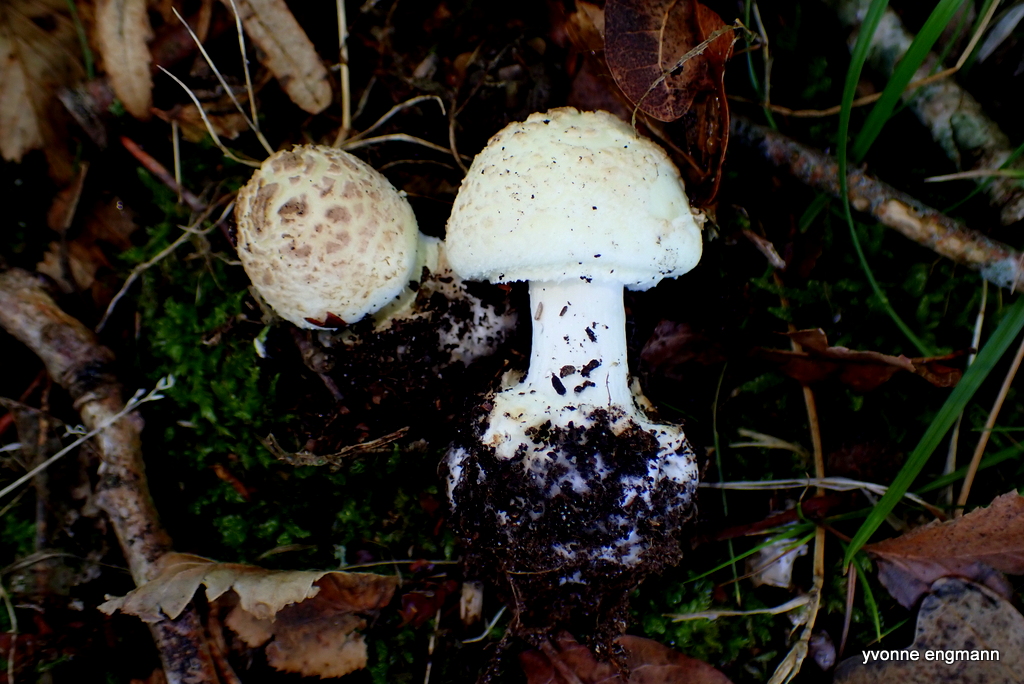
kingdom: Fungi
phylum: Basidiomycota
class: Agaricomycetes
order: Agaricales
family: Amanitaceae
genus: Amanita
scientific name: Amanita citrina
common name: False death-cap
